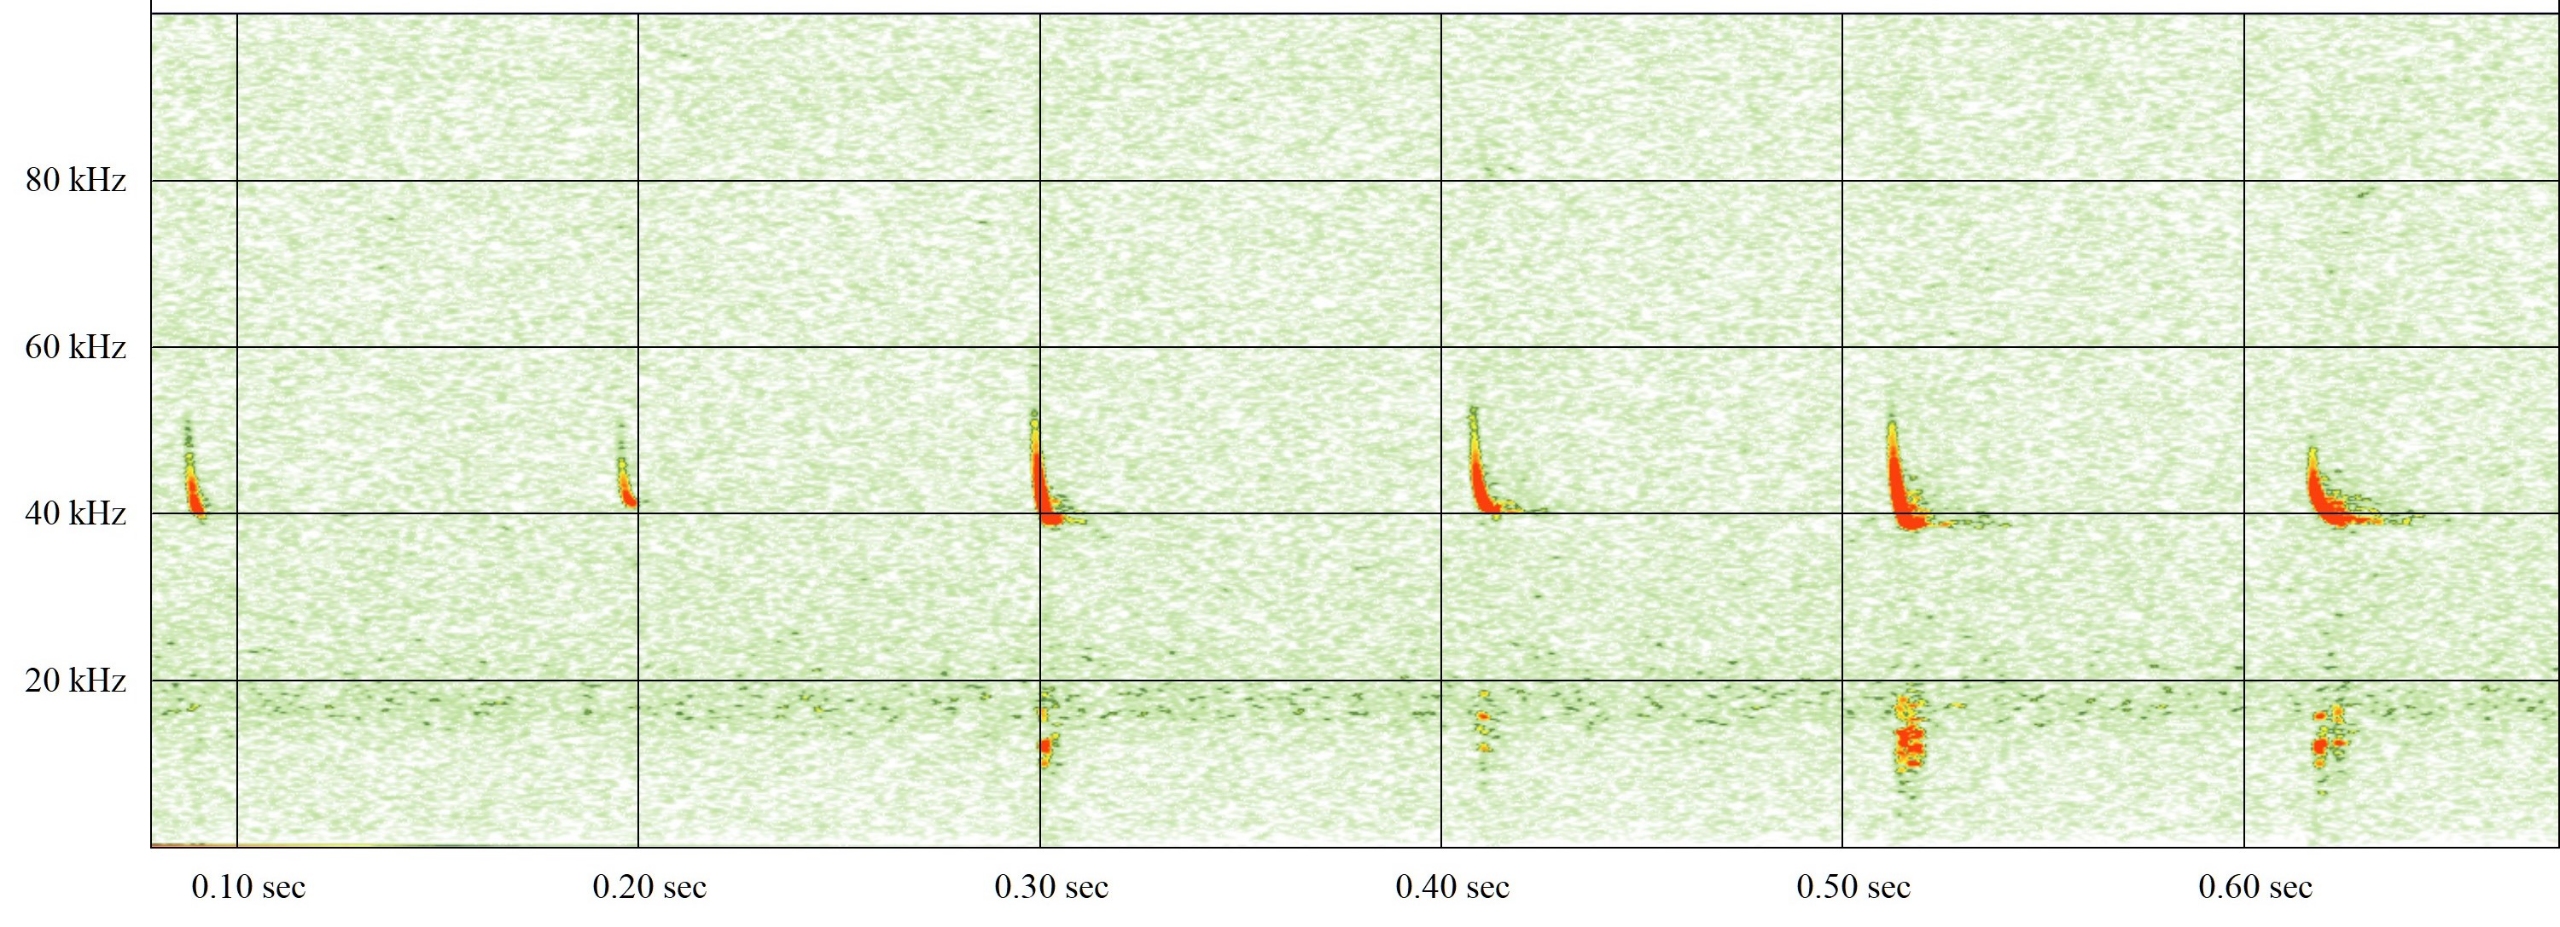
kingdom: Animalia
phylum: Chordata
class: Mammalia
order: Chiroptera
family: Vespertilionidae
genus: Pipistrellus
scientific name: Pipistrellus nathusii
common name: Troldflagermus
